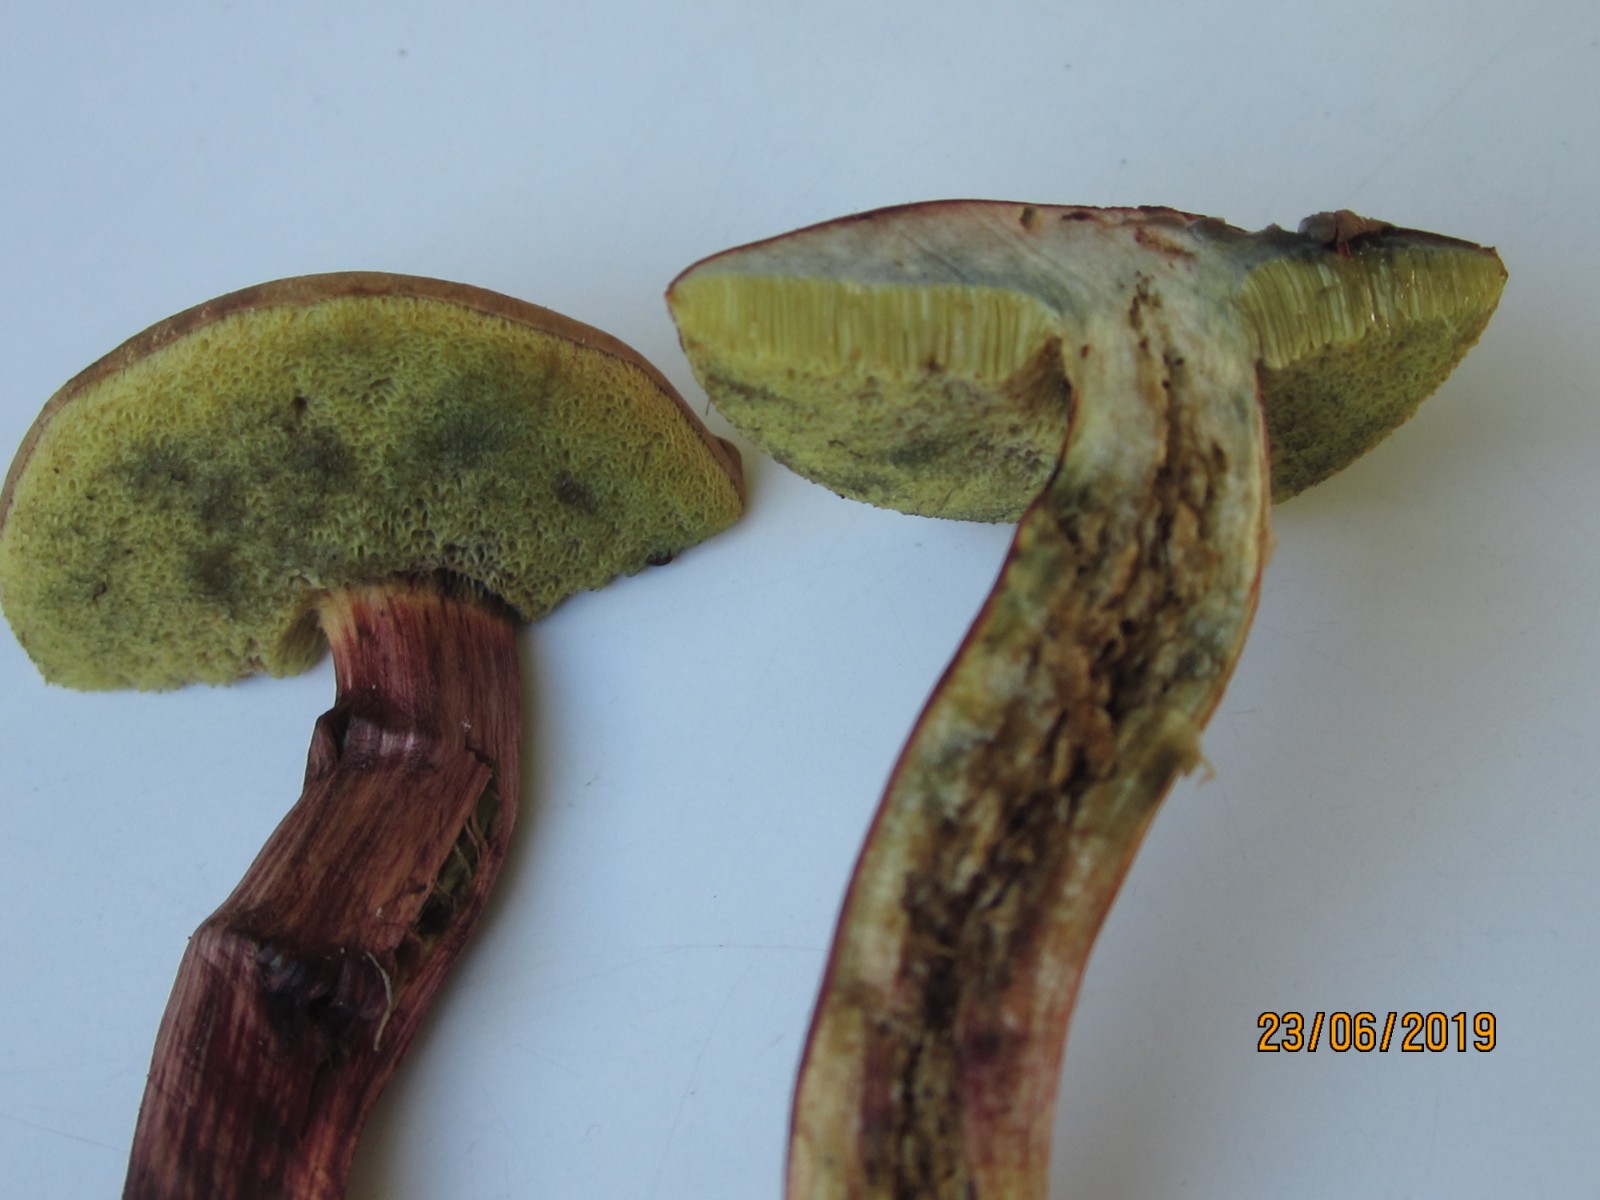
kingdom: Fungi
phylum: Basidiomycota
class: Agaricomycetes
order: Boletales
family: Boletaceae
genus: Hortiboletus
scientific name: Hortiboletus bubalinus
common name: aurora-rørhat
